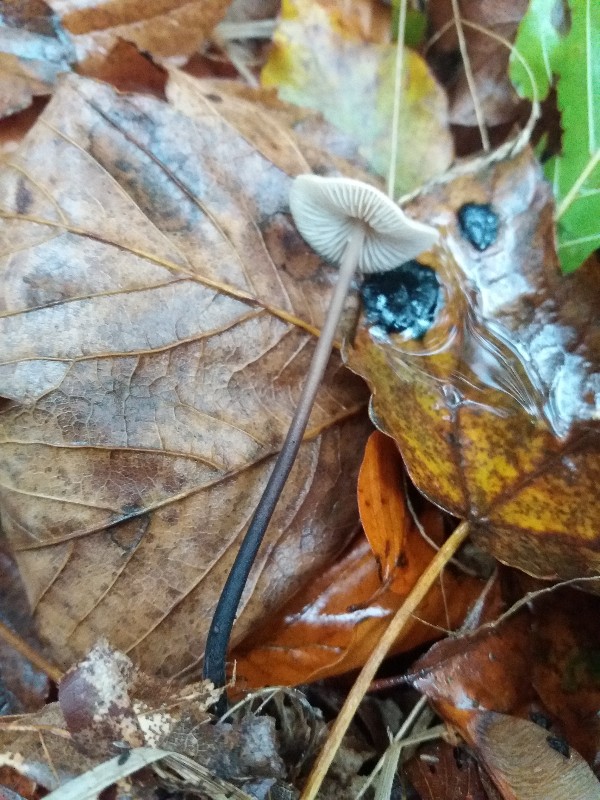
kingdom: Fungi
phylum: Basidiomycota
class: Agaricomycetes
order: Agaricales
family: Omphalotaceae
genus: Mycetinis
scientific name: Mycetinis alliaceus
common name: stor løghat
